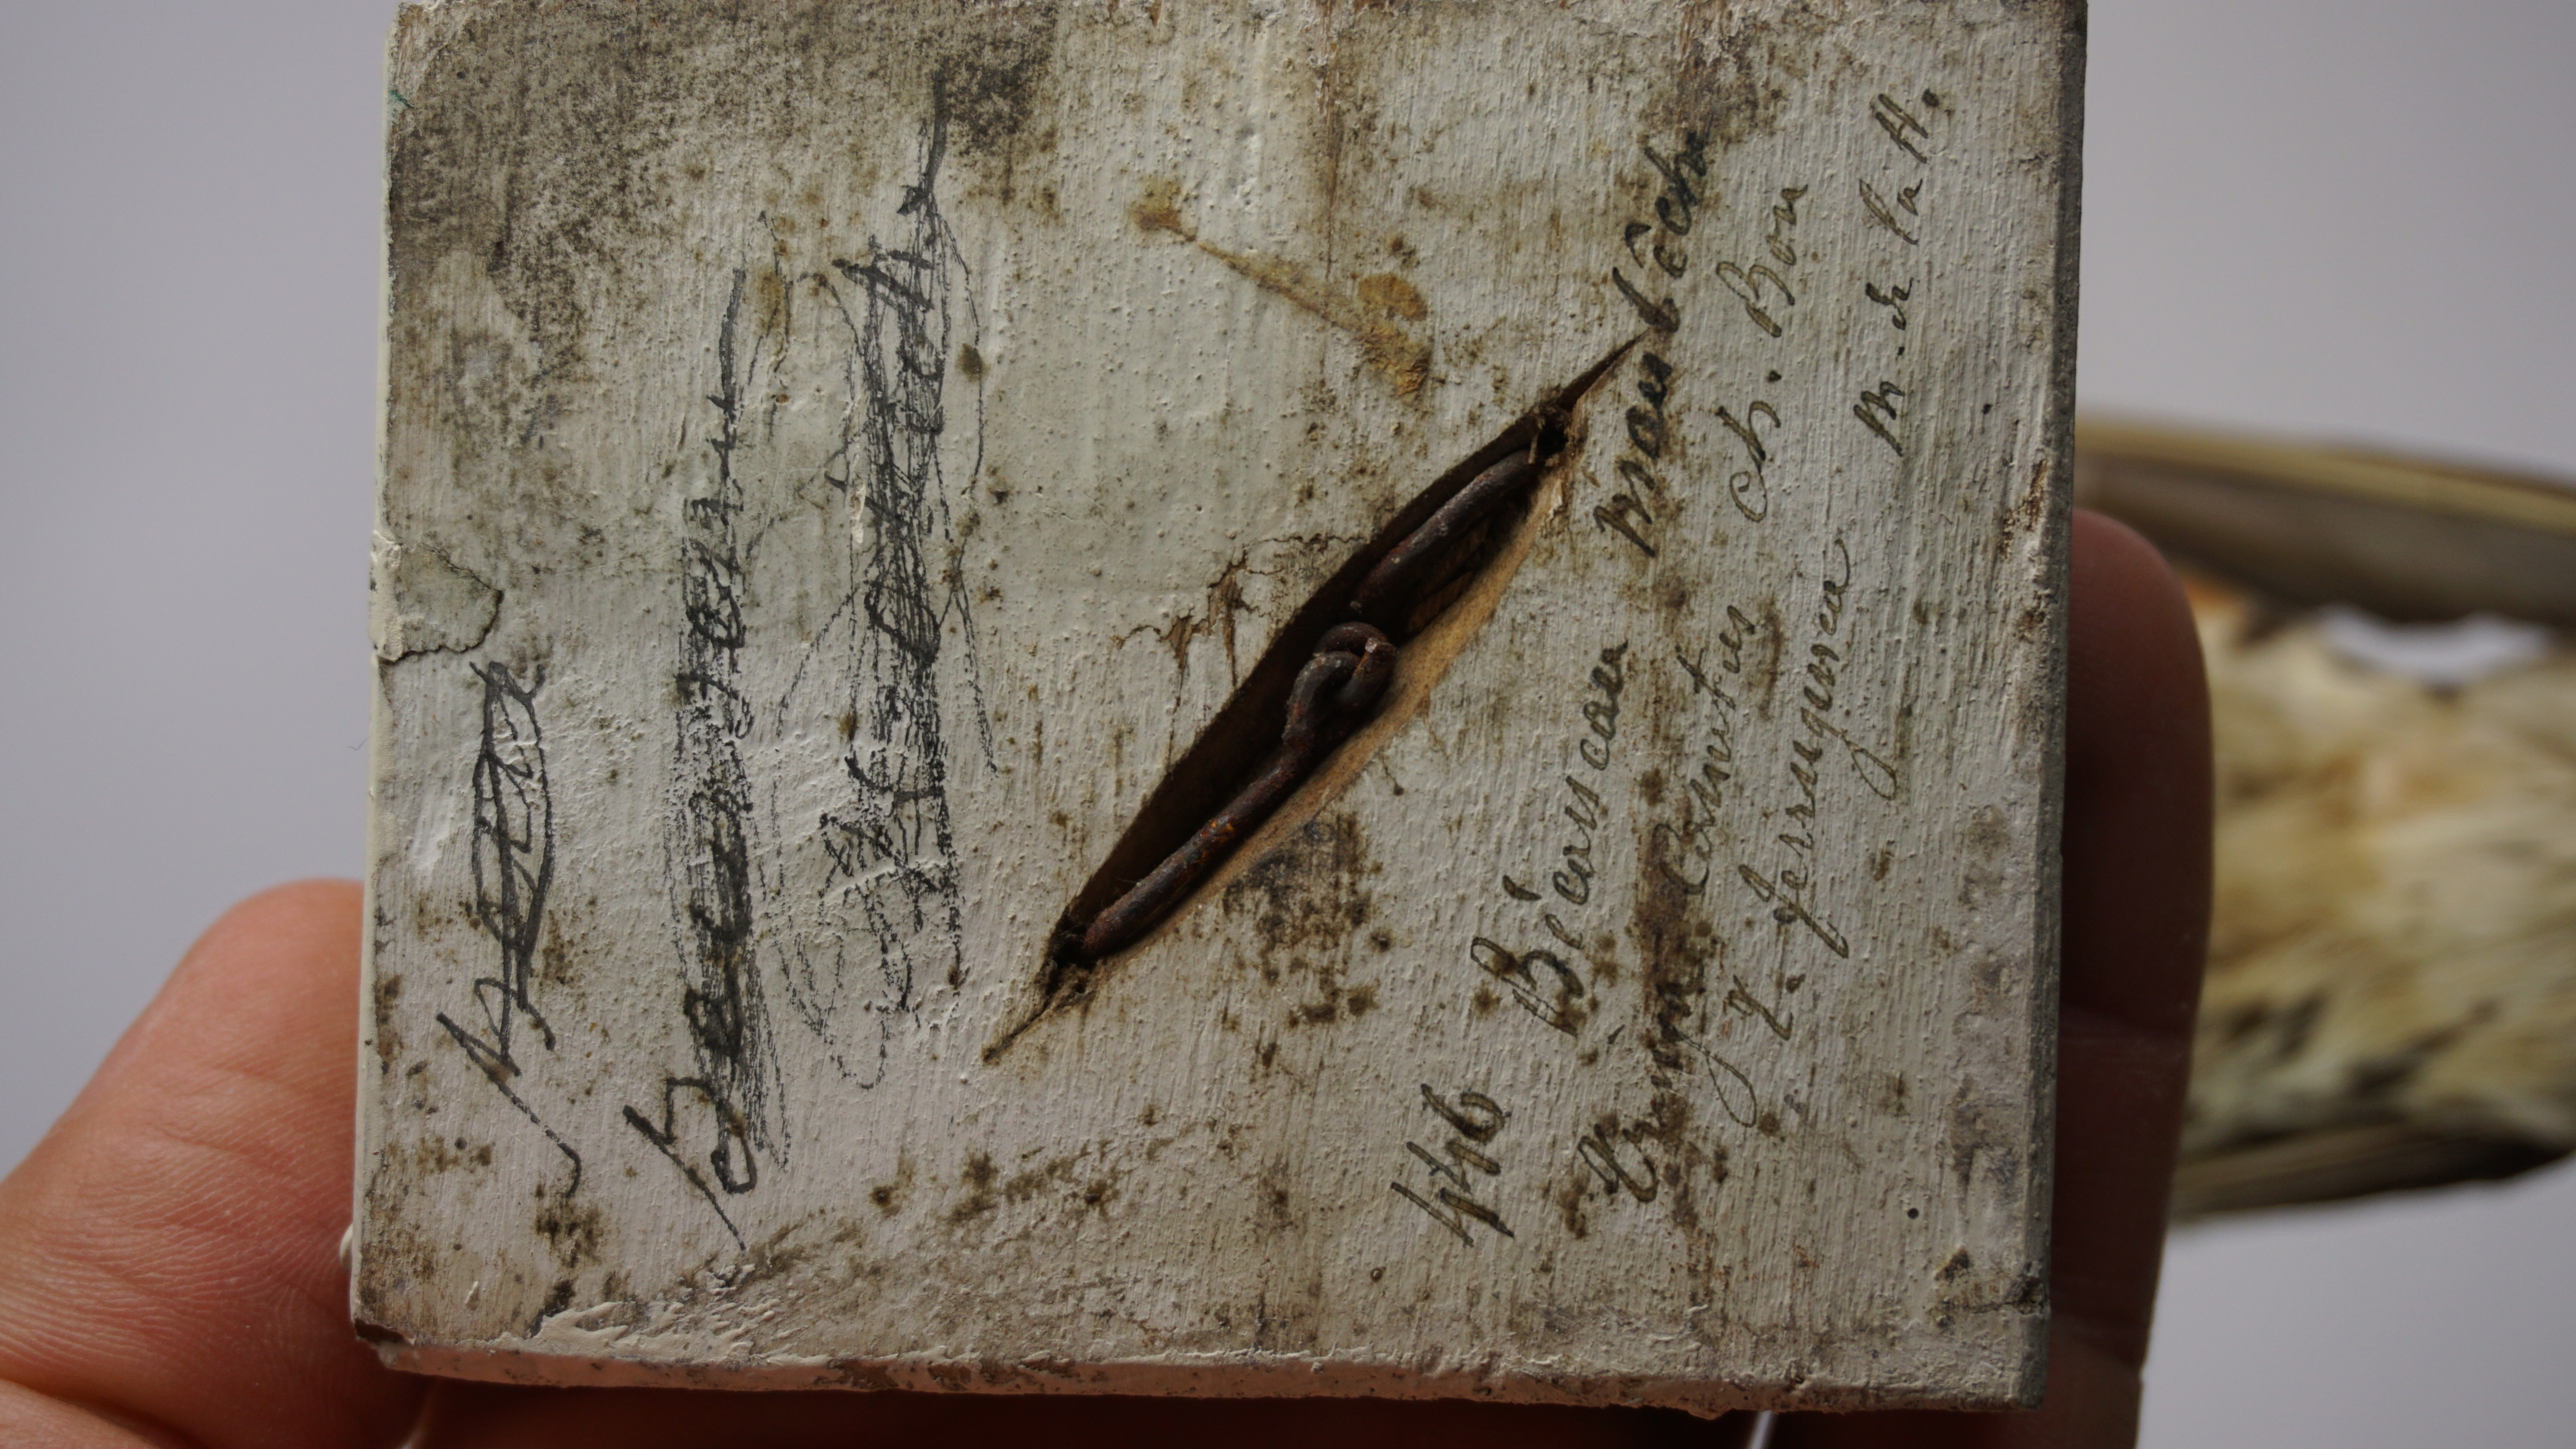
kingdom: Animalia
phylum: Chordata
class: Aves
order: Charadriiformes
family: Scolopacidae
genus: Calidris
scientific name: Calidris canutus
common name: Red knot
